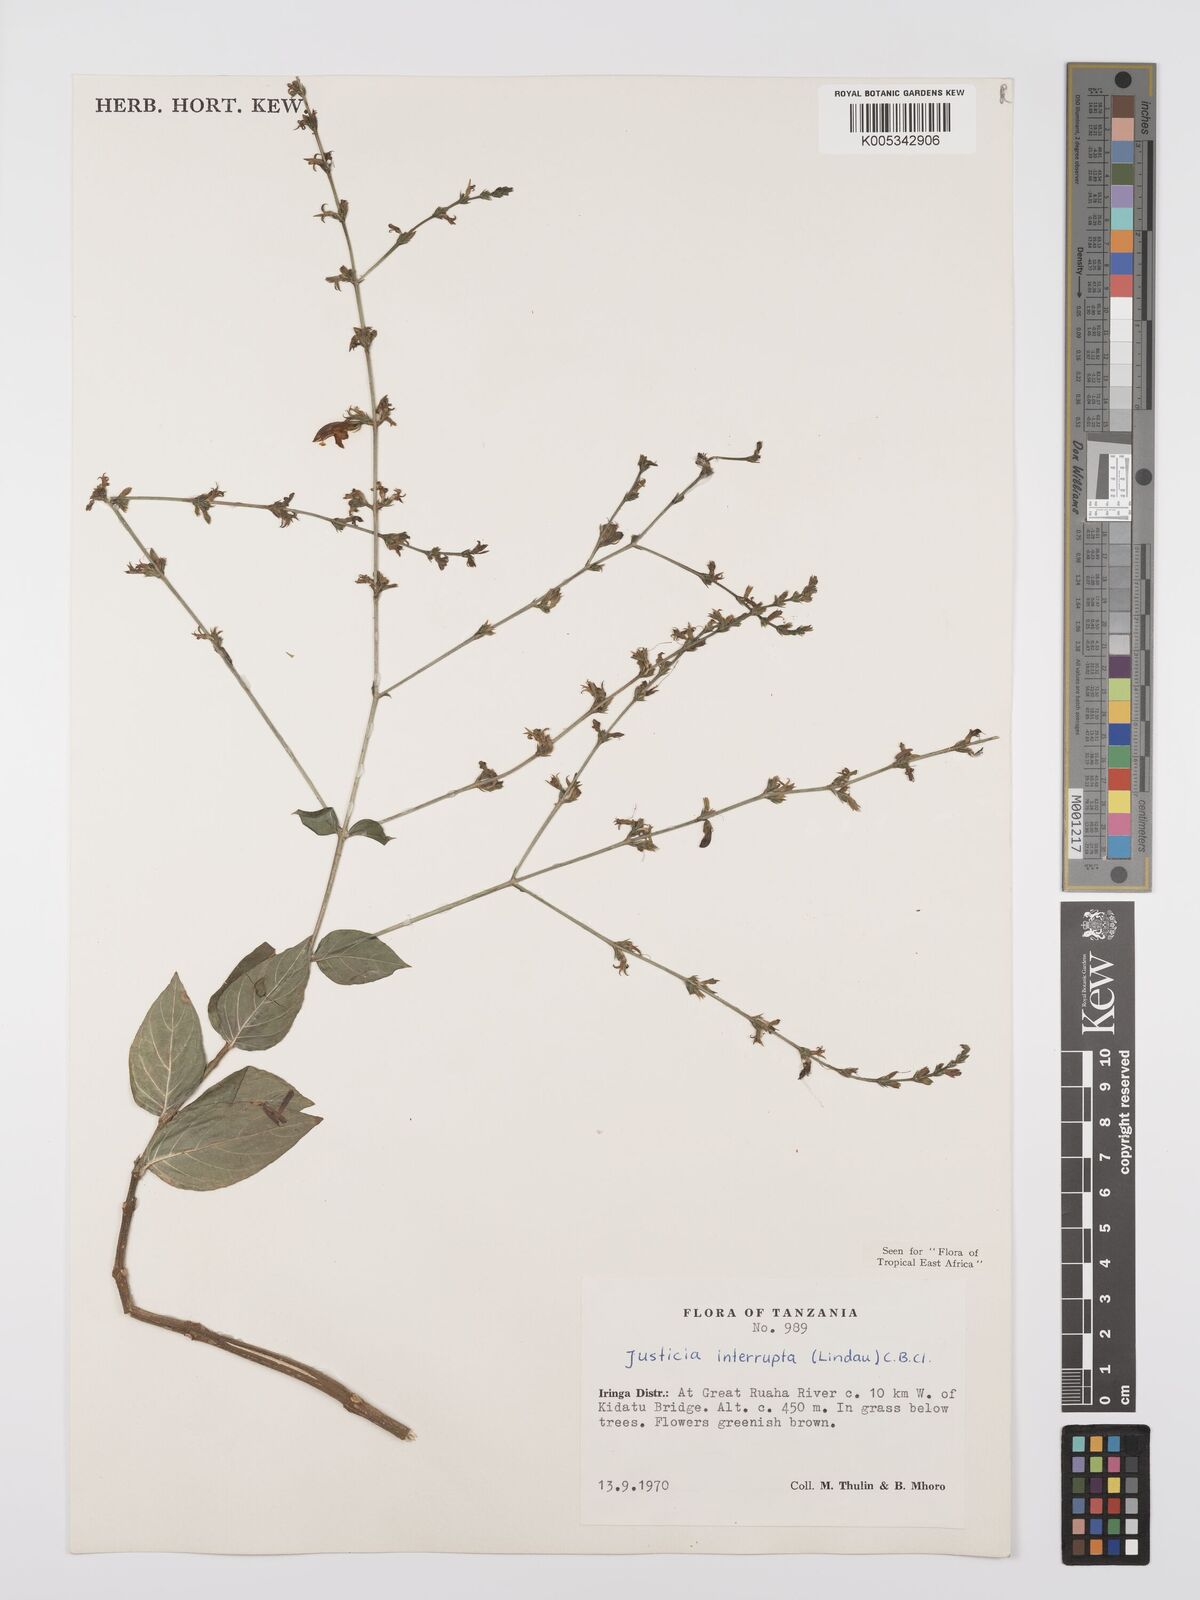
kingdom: Plantae
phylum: Tracheophyta
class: Magnoliopsida
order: Lamiales
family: Acanthaceae
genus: Justicia
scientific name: Justicia plectranthoides
